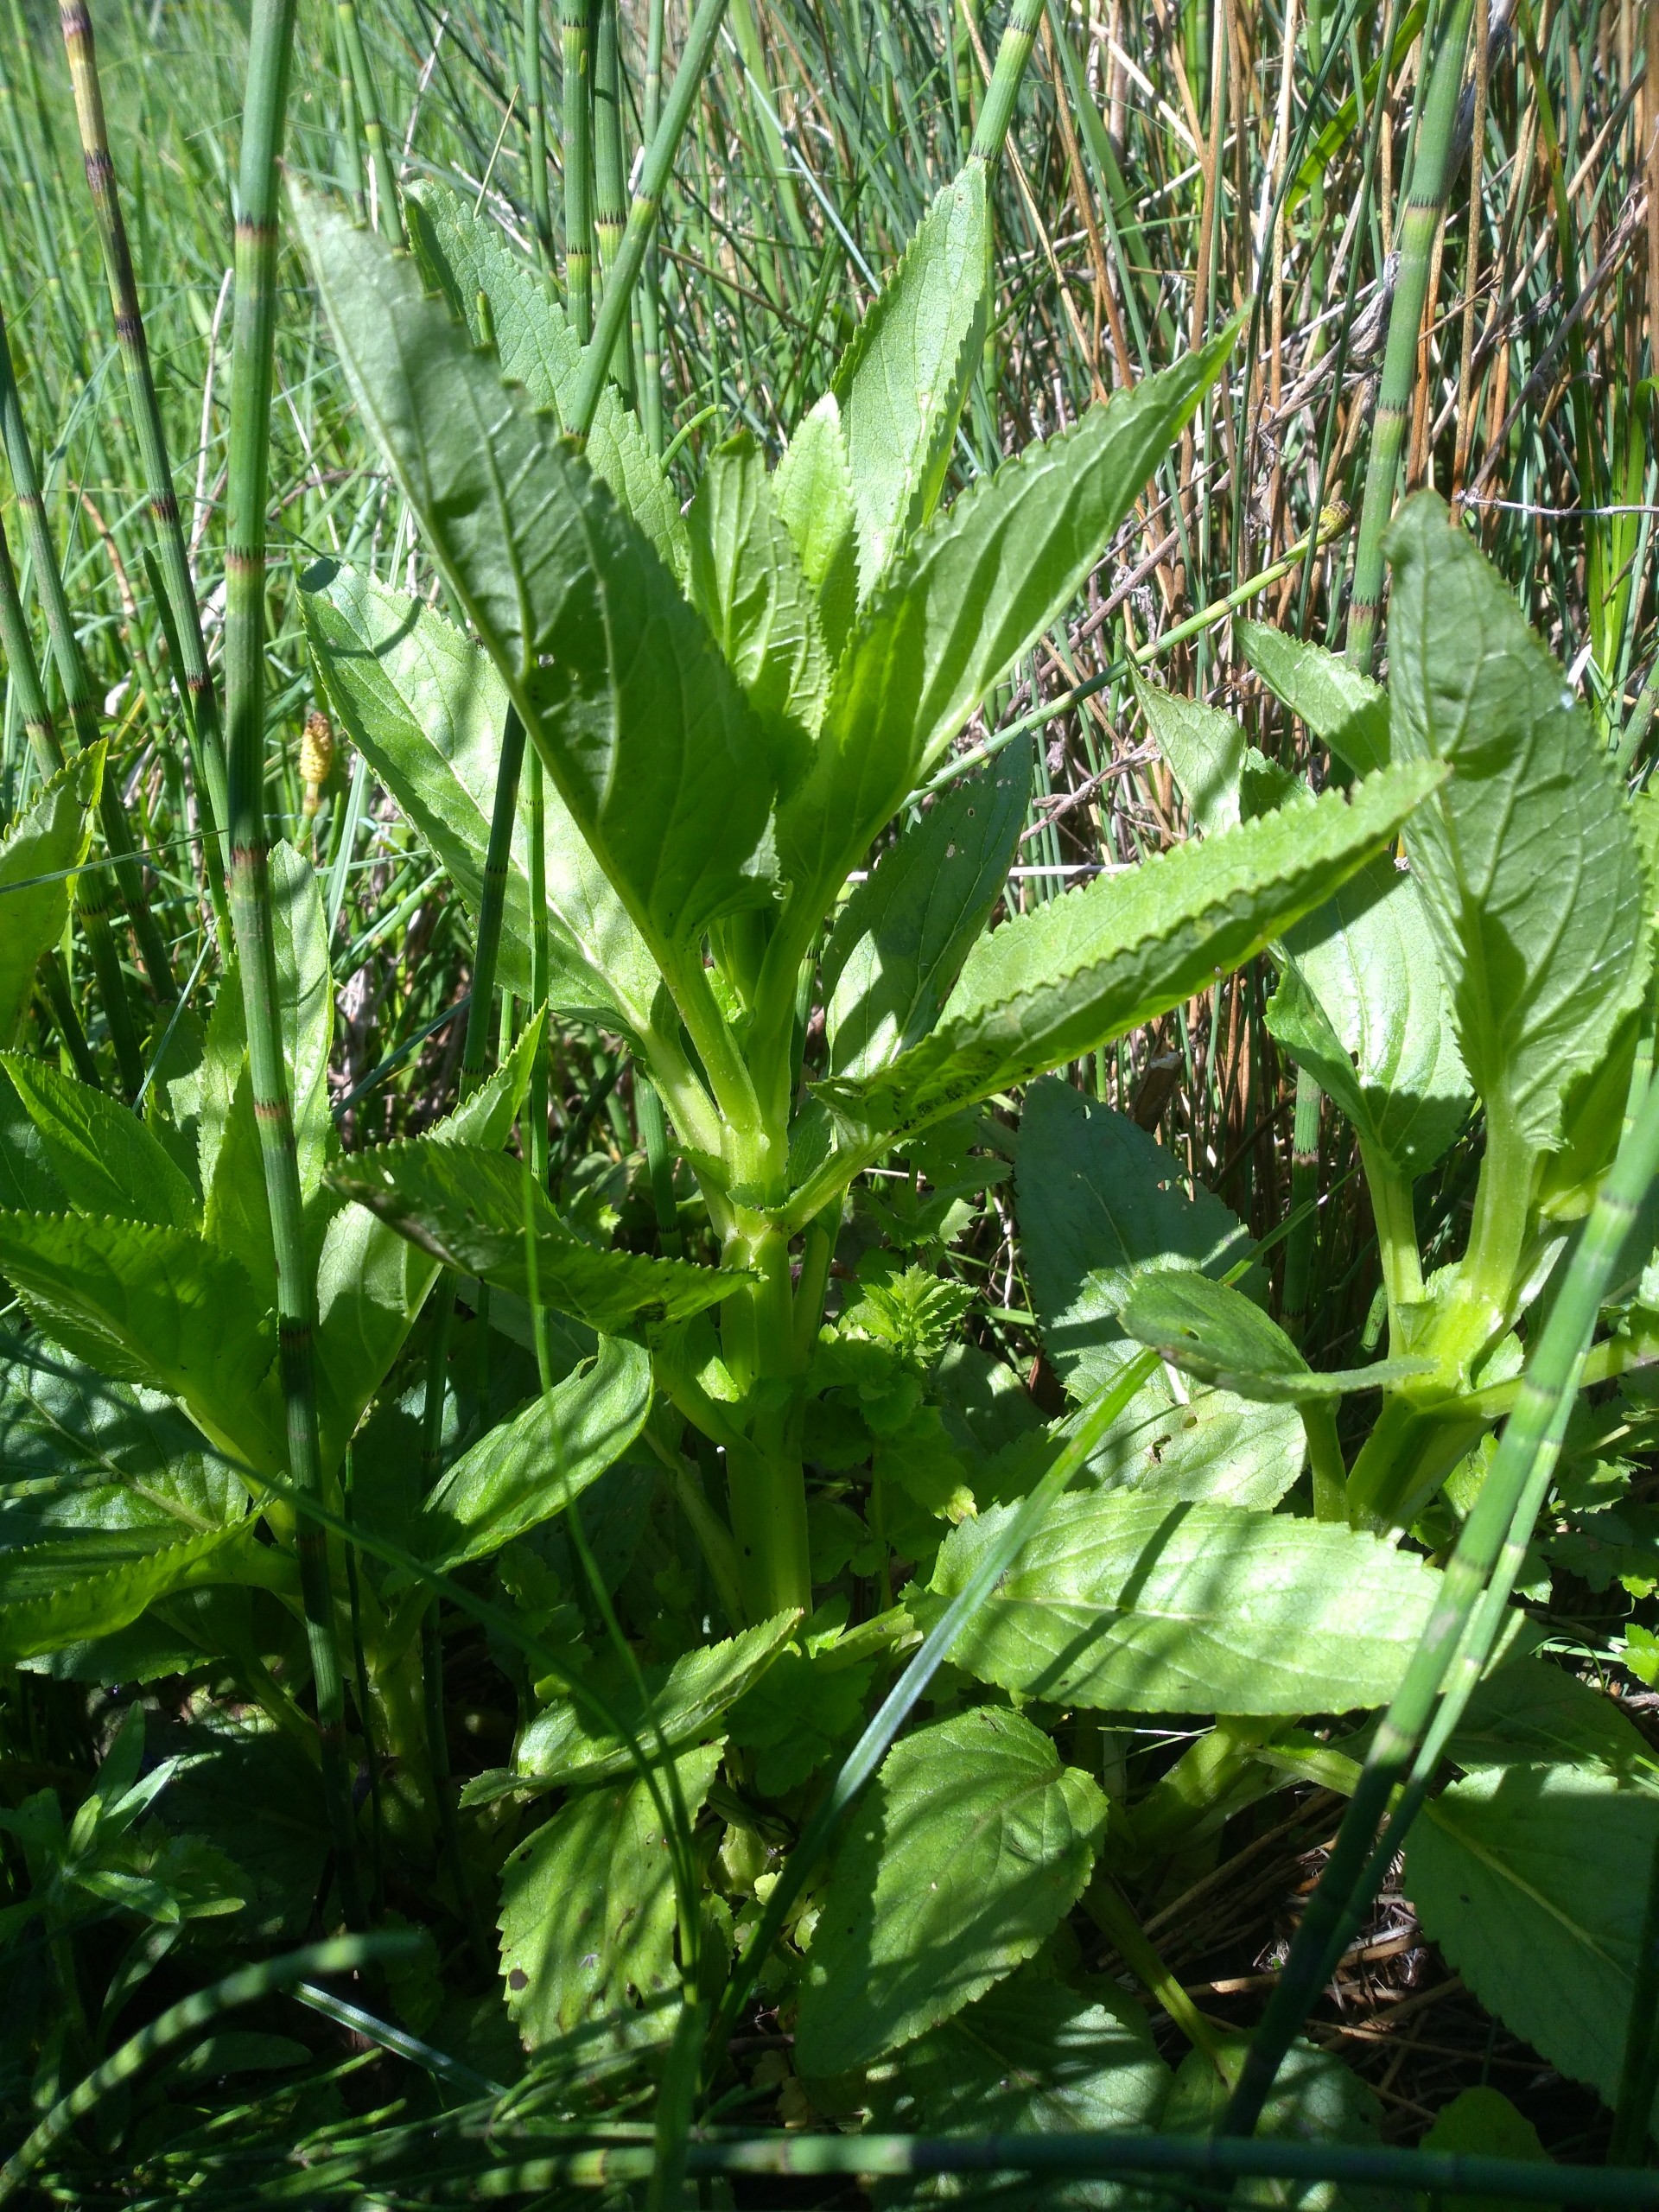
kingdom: Plantae
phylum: Tracheophyta
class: Magnoliopsida
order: Lamiales
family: Scrophulariaceae
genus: Scrophularia
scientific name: Scrophularia umbrosa
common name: Vand-brunrod
